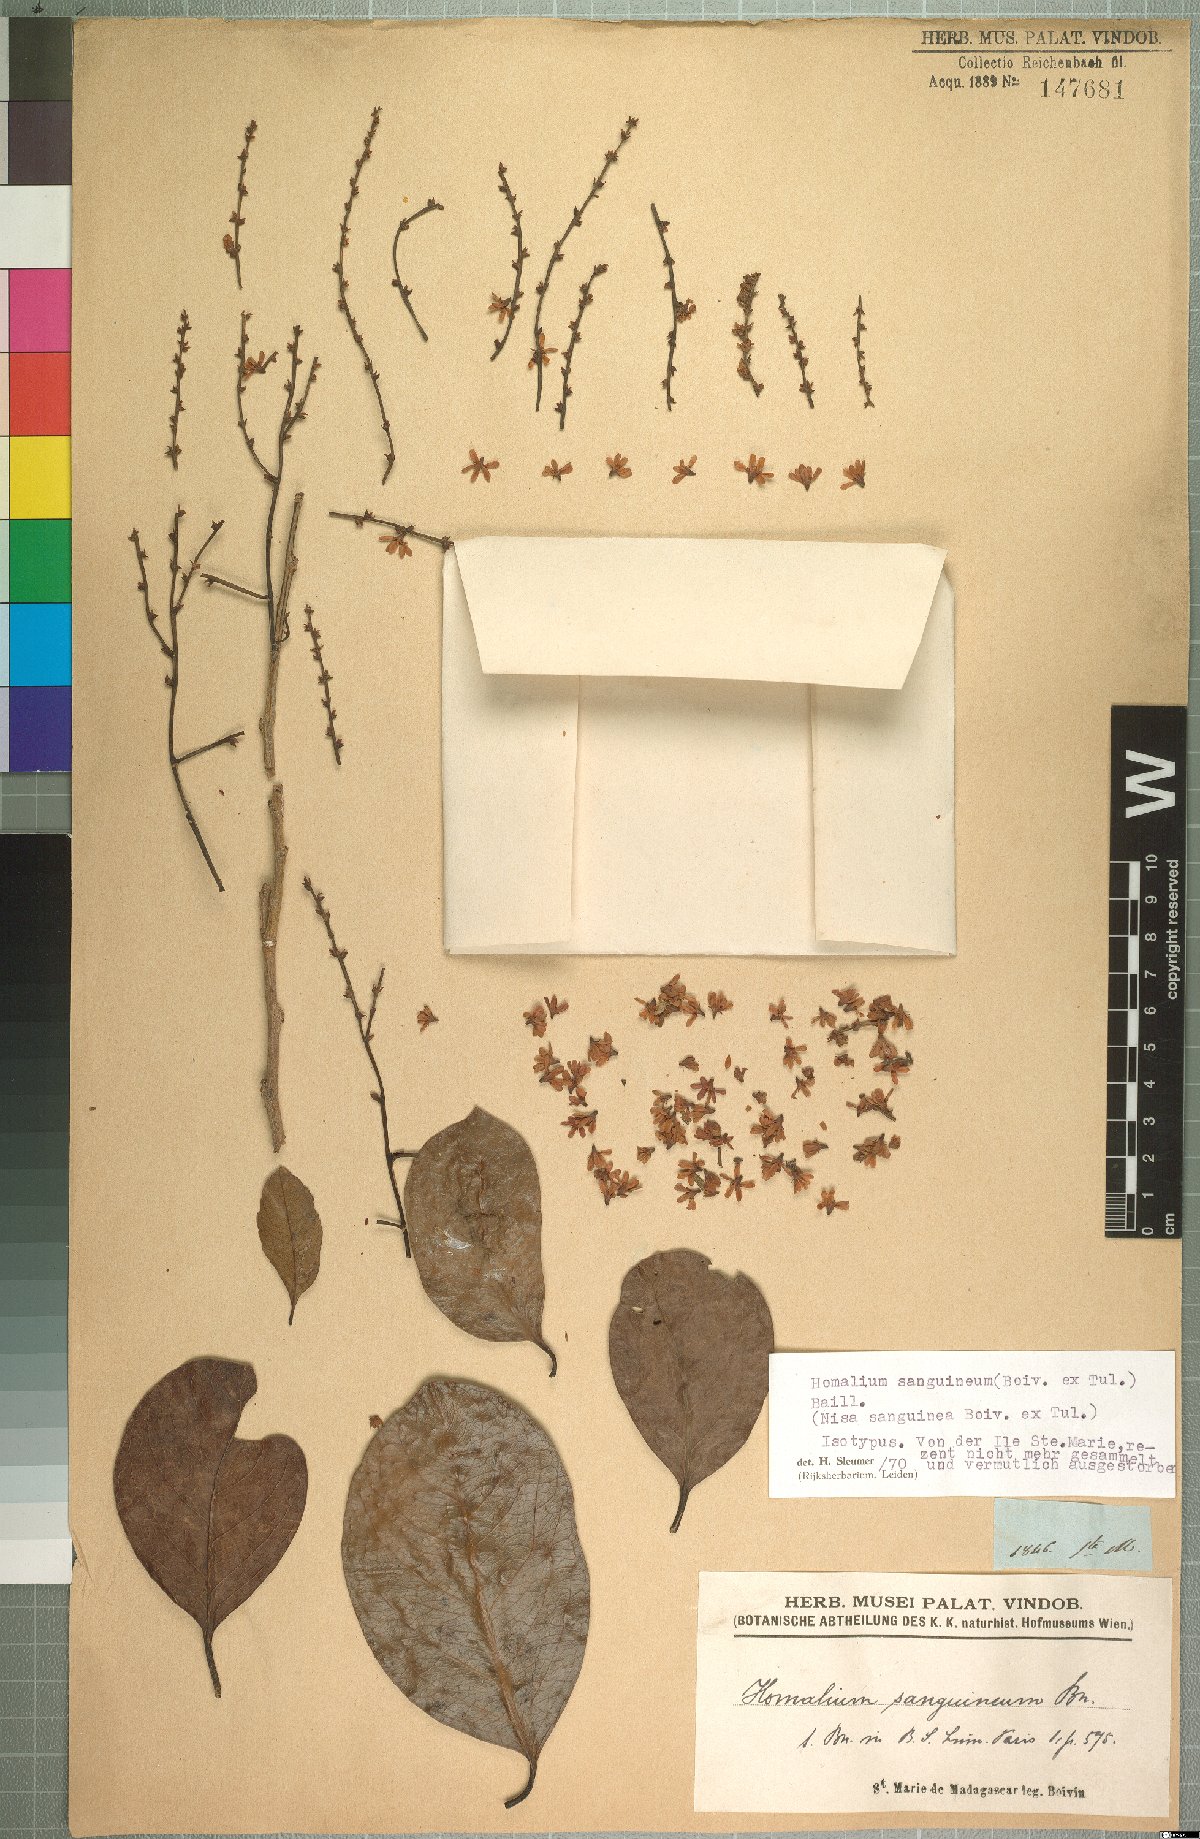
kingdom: Plantae
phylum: Tracheophyta
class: Magnoliopsida
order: Malpighiales
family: Salicaceae
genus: Homalium
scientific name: Homalium sanguineum
